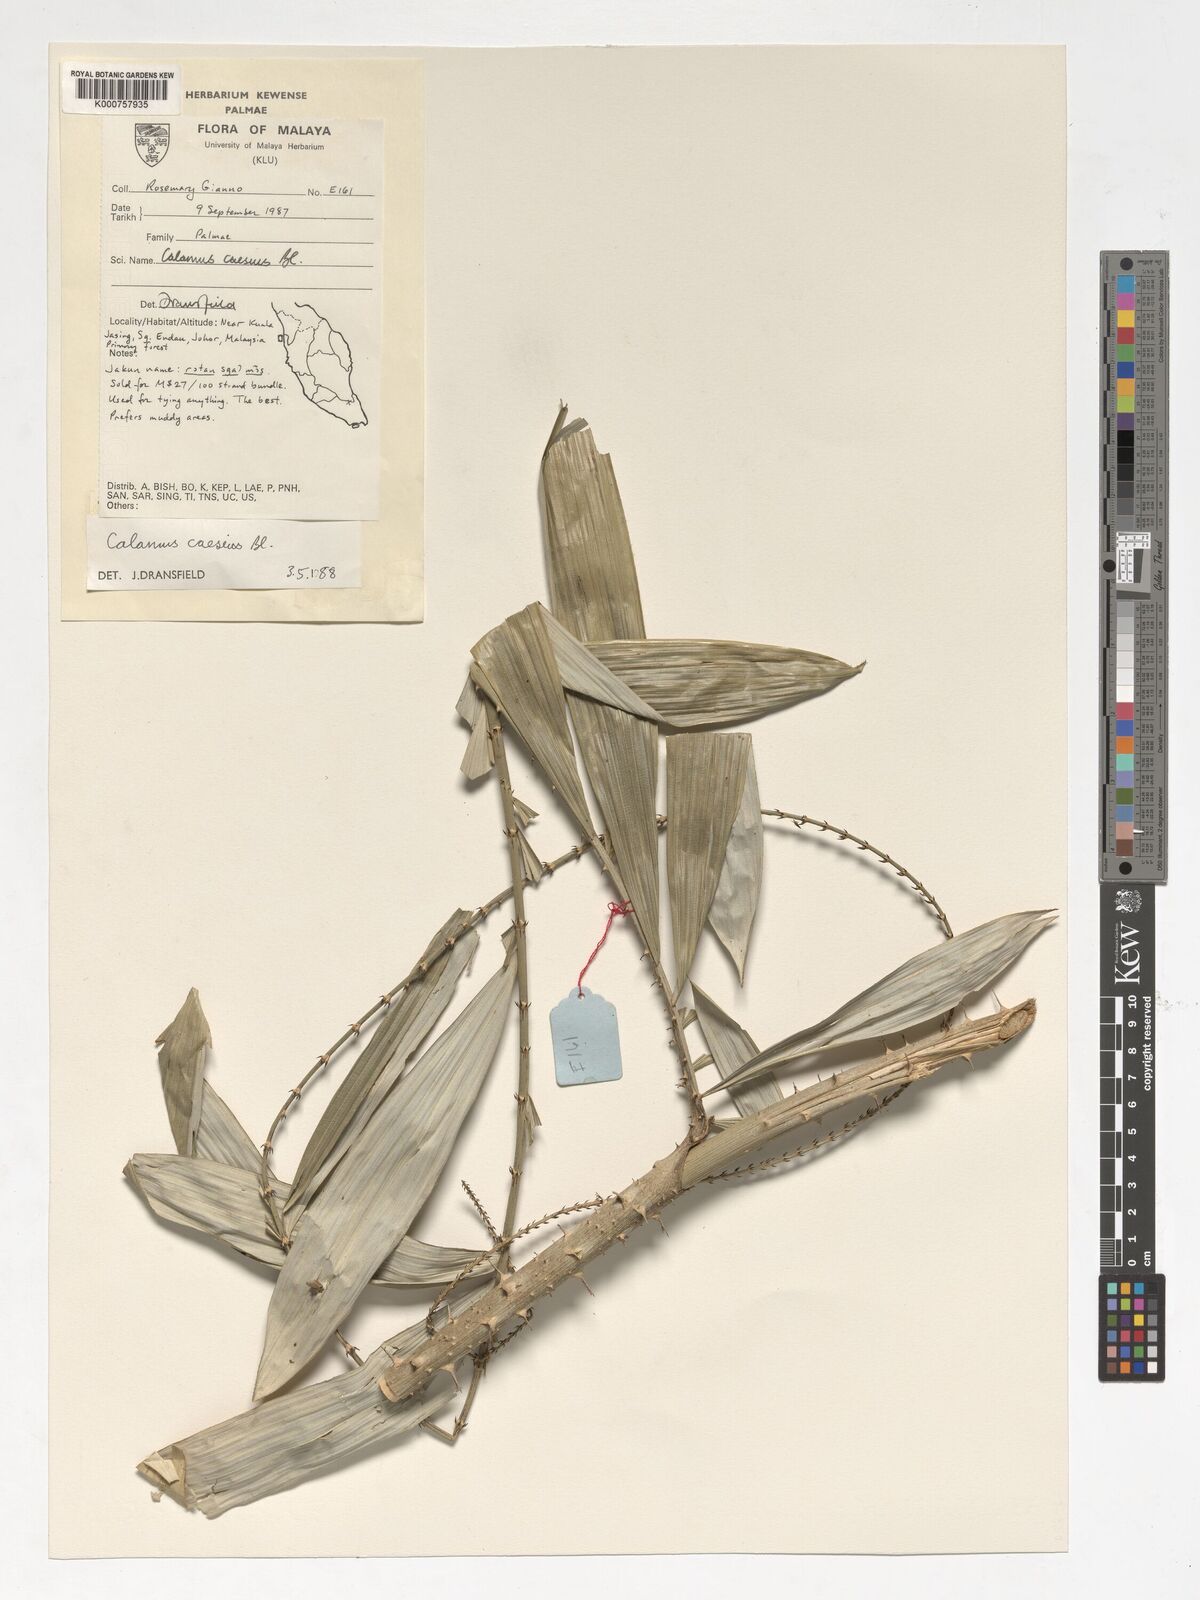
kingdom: Plantae
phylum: Tracheophyta
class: Liliopsida
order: Arecales
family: Arecaceae
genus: Calamus
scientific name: Calamus caesius
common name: Rattan palm
